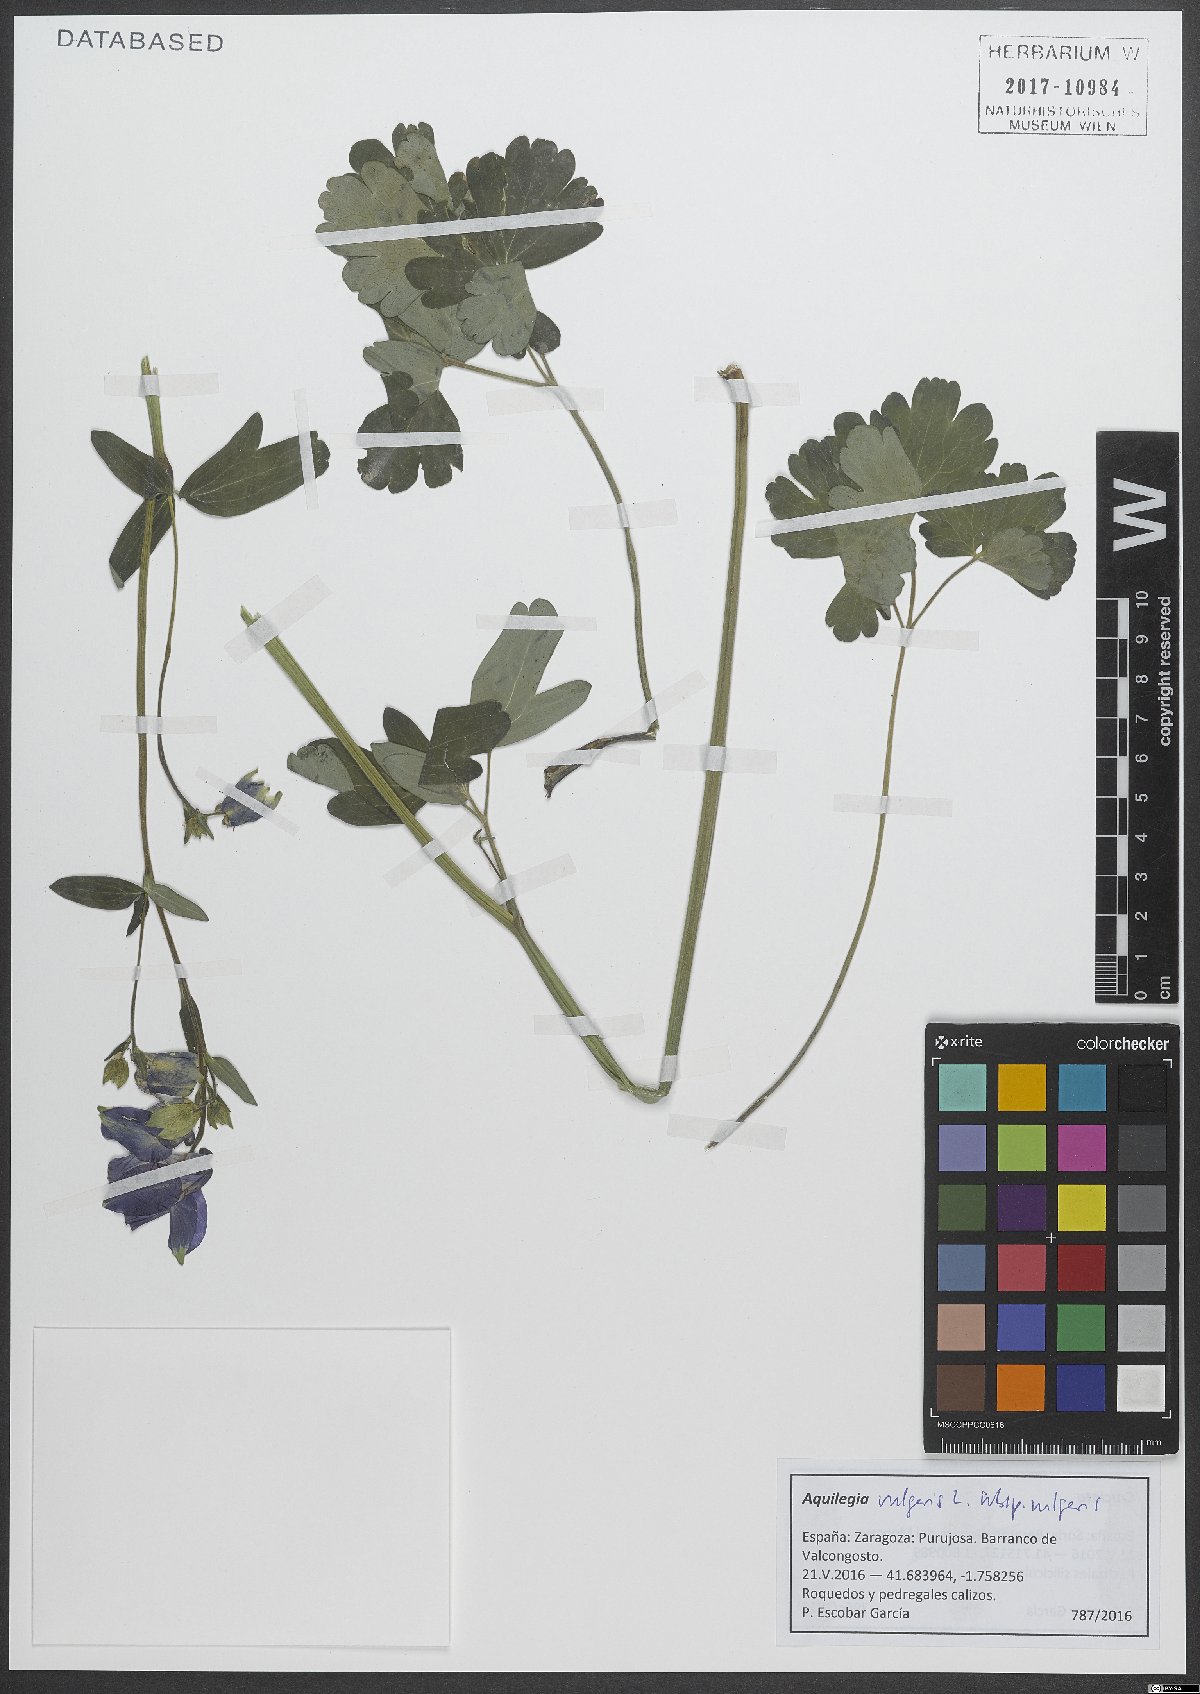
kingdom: Plantae
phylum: Tracheophyta
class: Magnoliopsida
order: Ranunculales
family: Ranunculaceae
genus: Aquilegia
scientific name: Aquilegia vulgaris
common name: Columbine
